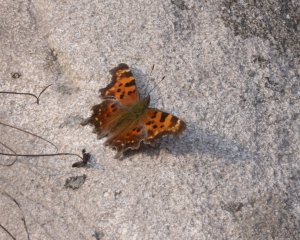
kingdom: Animalia
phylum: Arthropoda
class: Insecta
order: Lepidoptera
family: Nymphalidae
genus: Polygonia
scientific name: Polygonia faunus
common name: Green Comma
